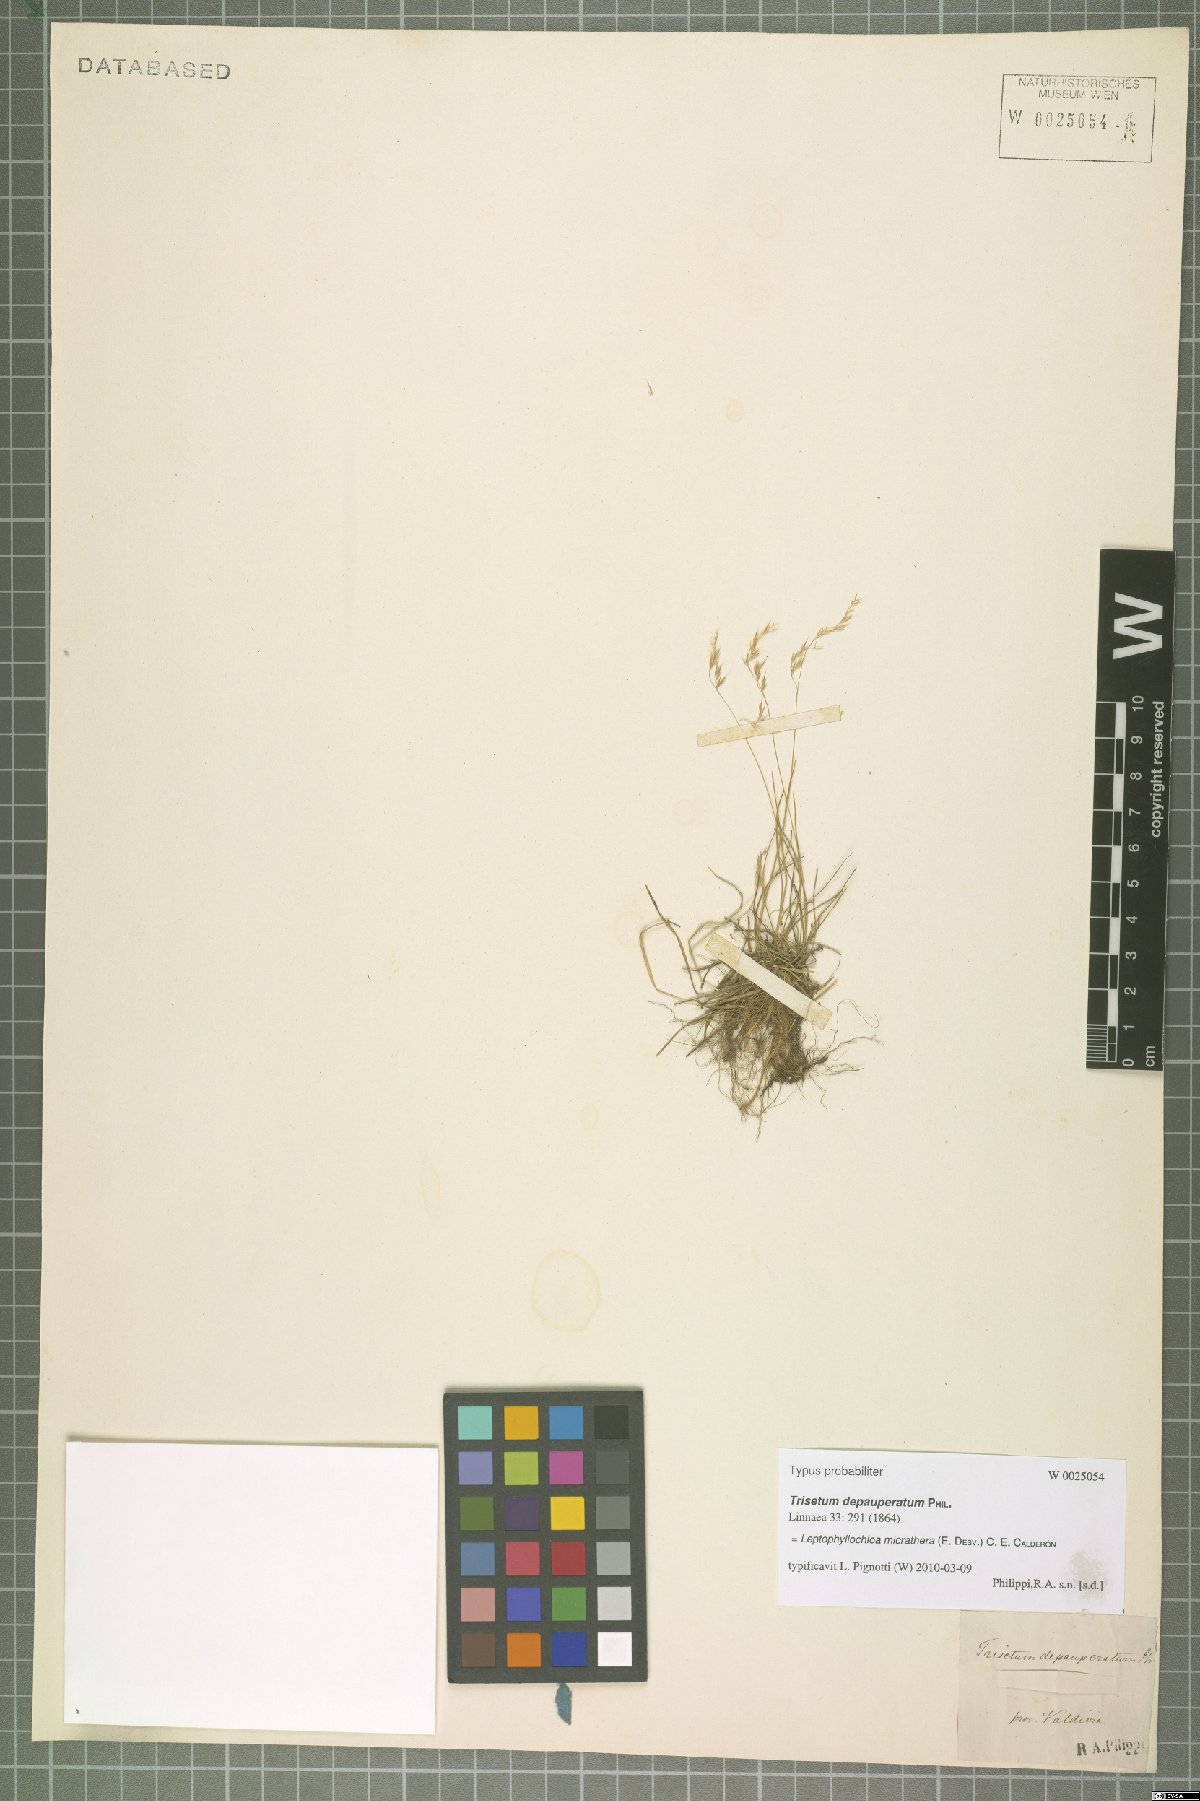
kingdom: Plantae
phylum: Tracheophyta
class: Liliopsida
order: Poales
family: Poaceae
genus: Cinnagrostis
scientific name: Cinnagrostis micrathera
